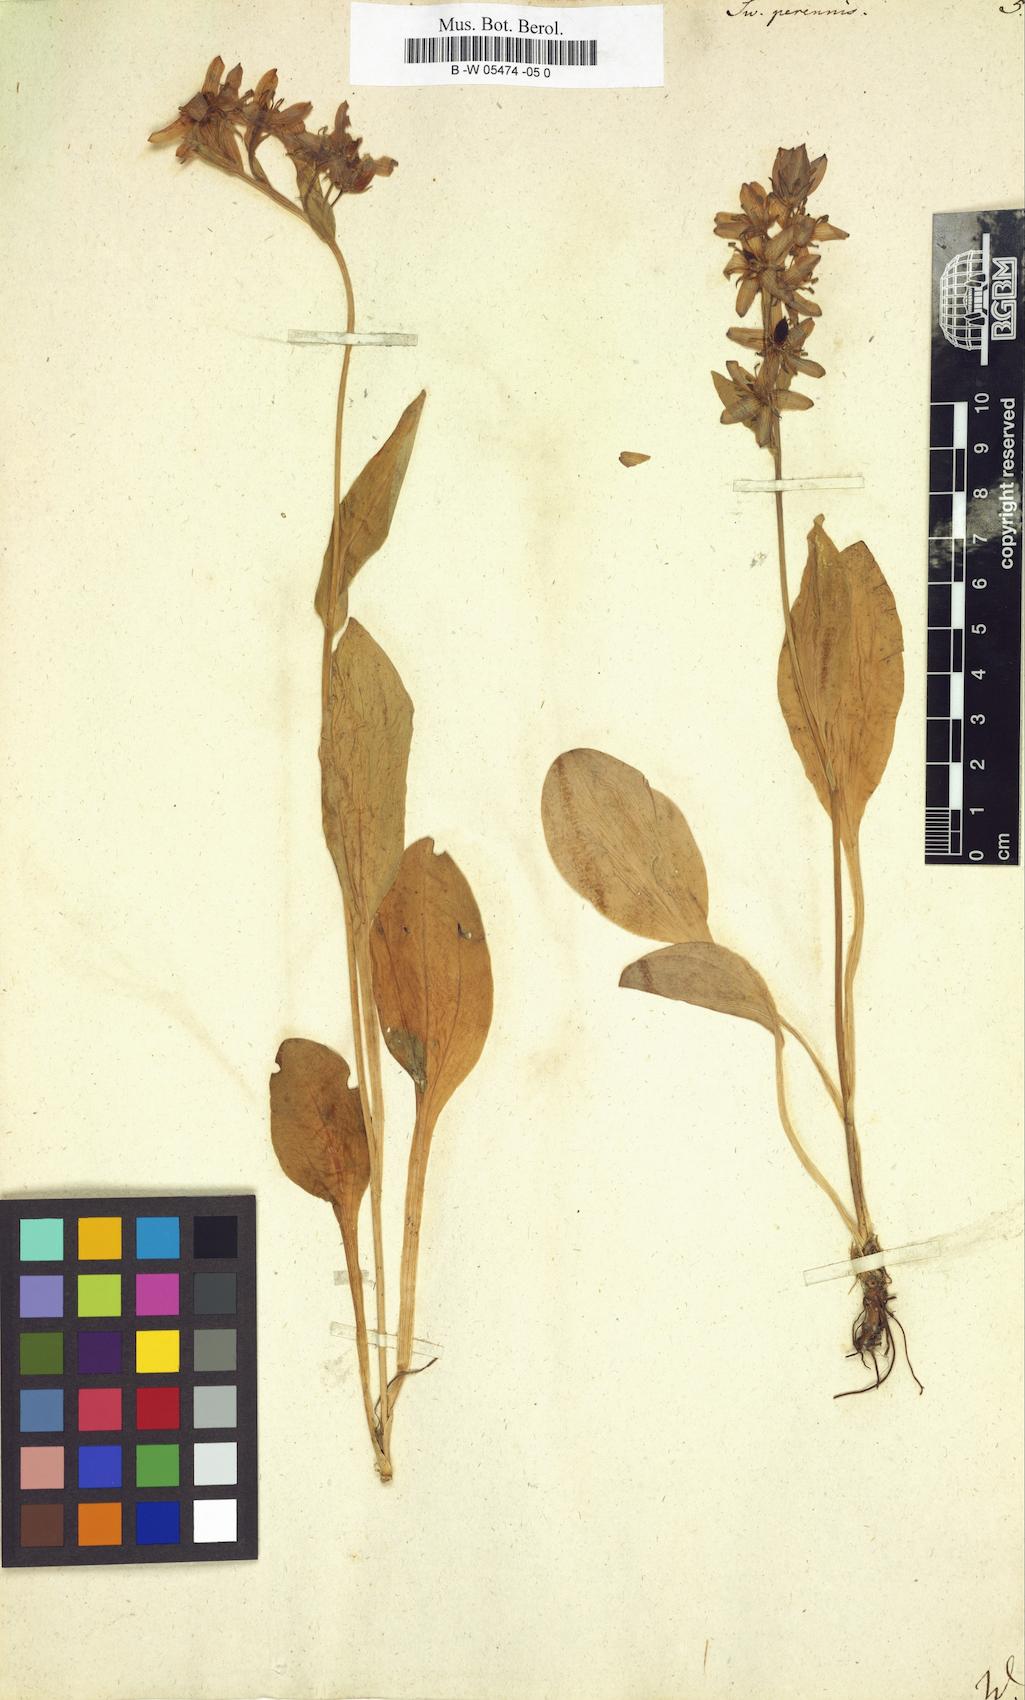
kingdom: Plantae
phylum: Tracheophyta
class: Magnoliopsida
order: Gentianales
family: Gentianaceae
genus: Swertia
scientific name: Swertia perennis
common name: Alpine bog swertia
